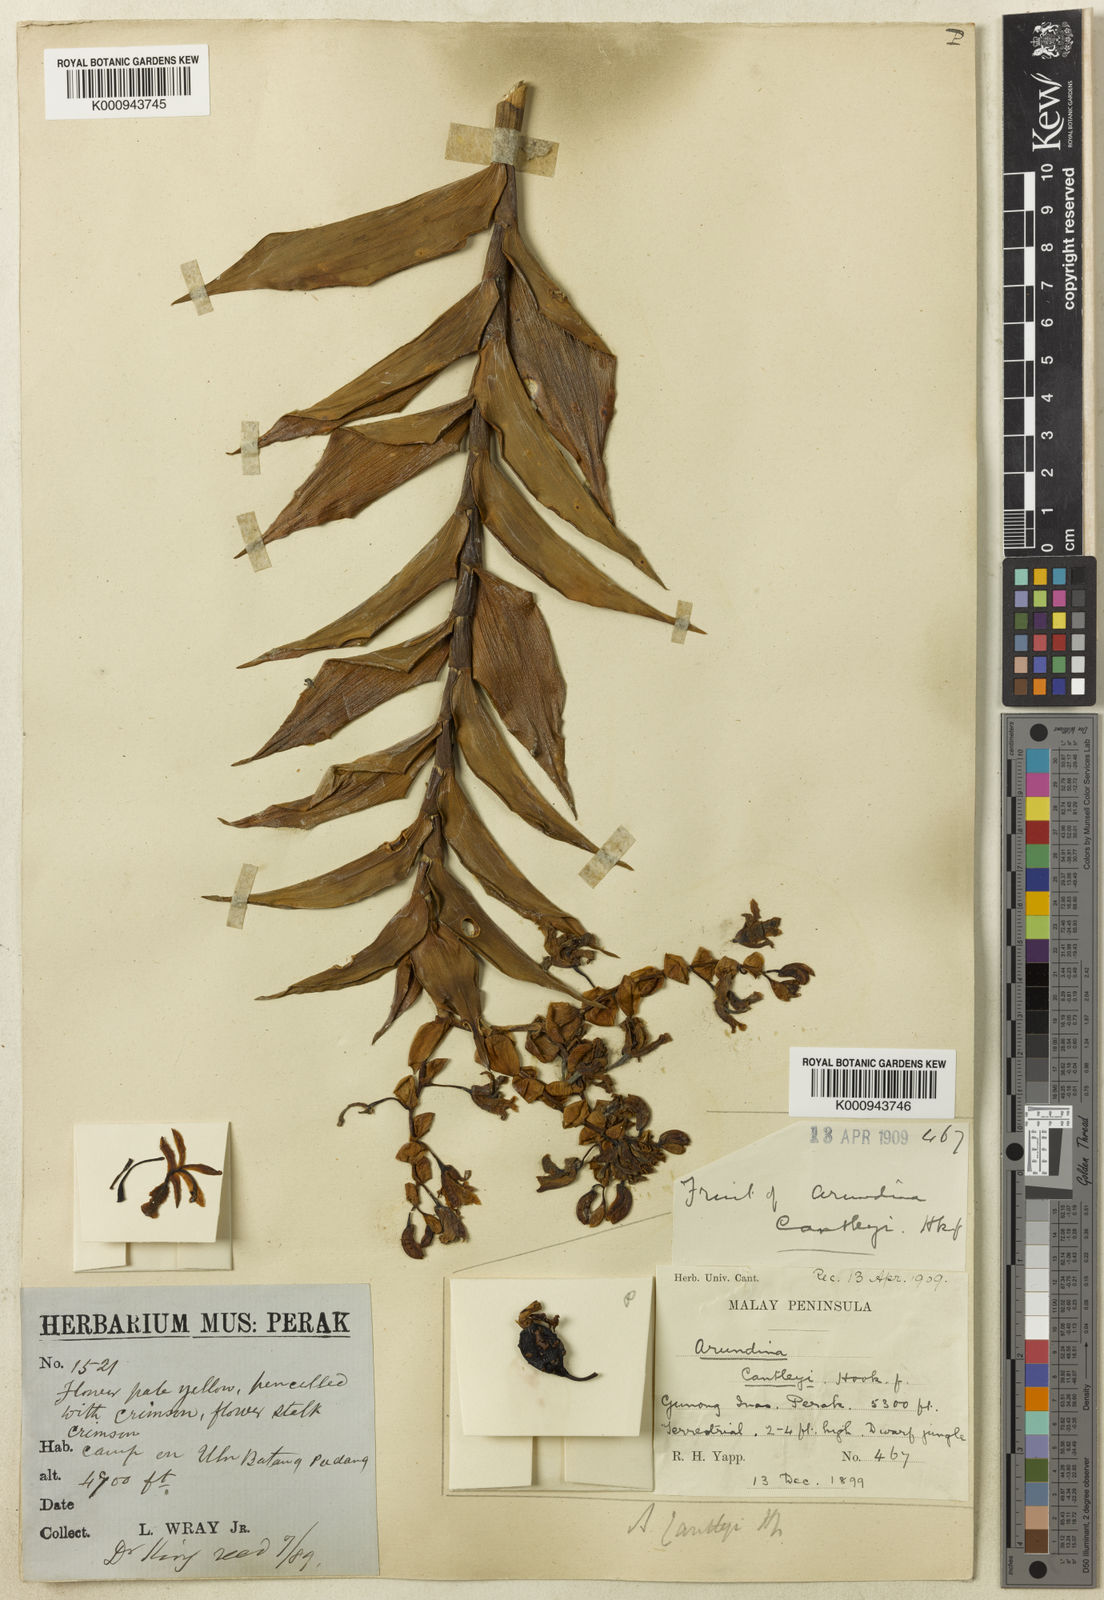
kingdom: Plantae
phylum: Tracheophyta
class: Liliopsida
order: Asparagales
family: Orchidaceae
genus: Dilochia
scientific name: Dilochia cantleyi
